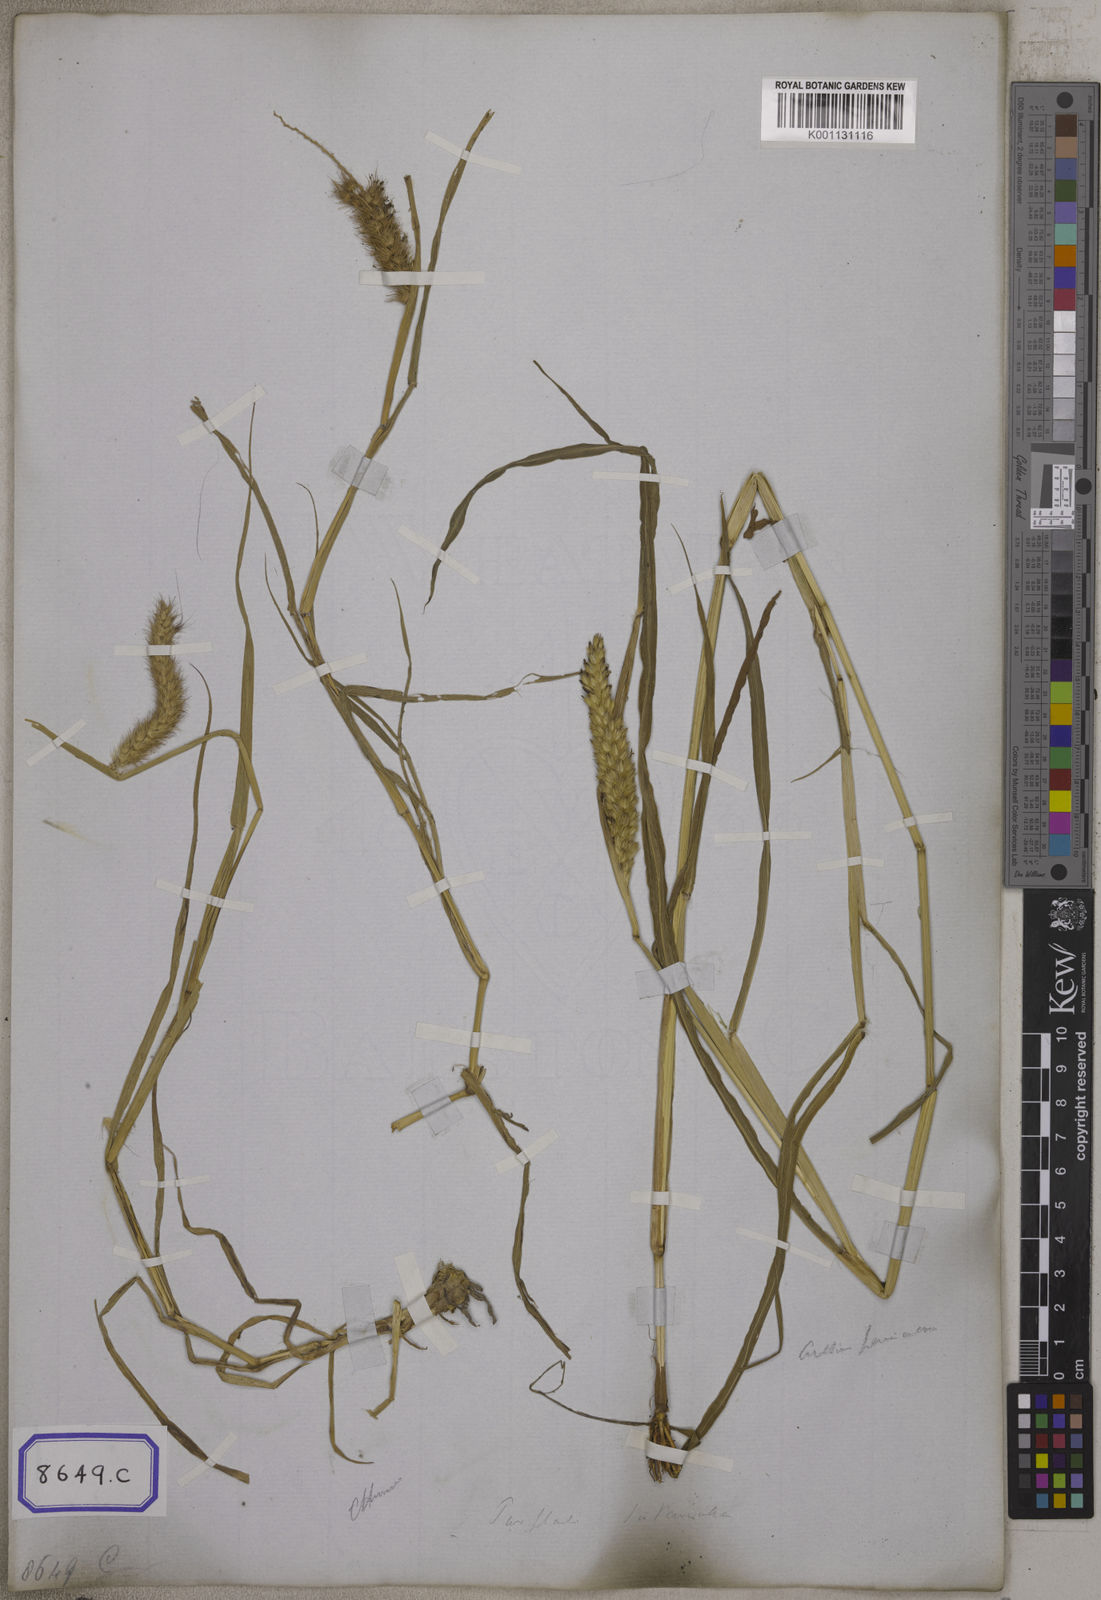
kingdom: Plantae
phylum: Tracheophyta
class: Liliopsida
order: Poales
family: Poaceae
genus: Cenchrus
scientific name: Cenchrus ciliaris
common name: Buffelgrass
